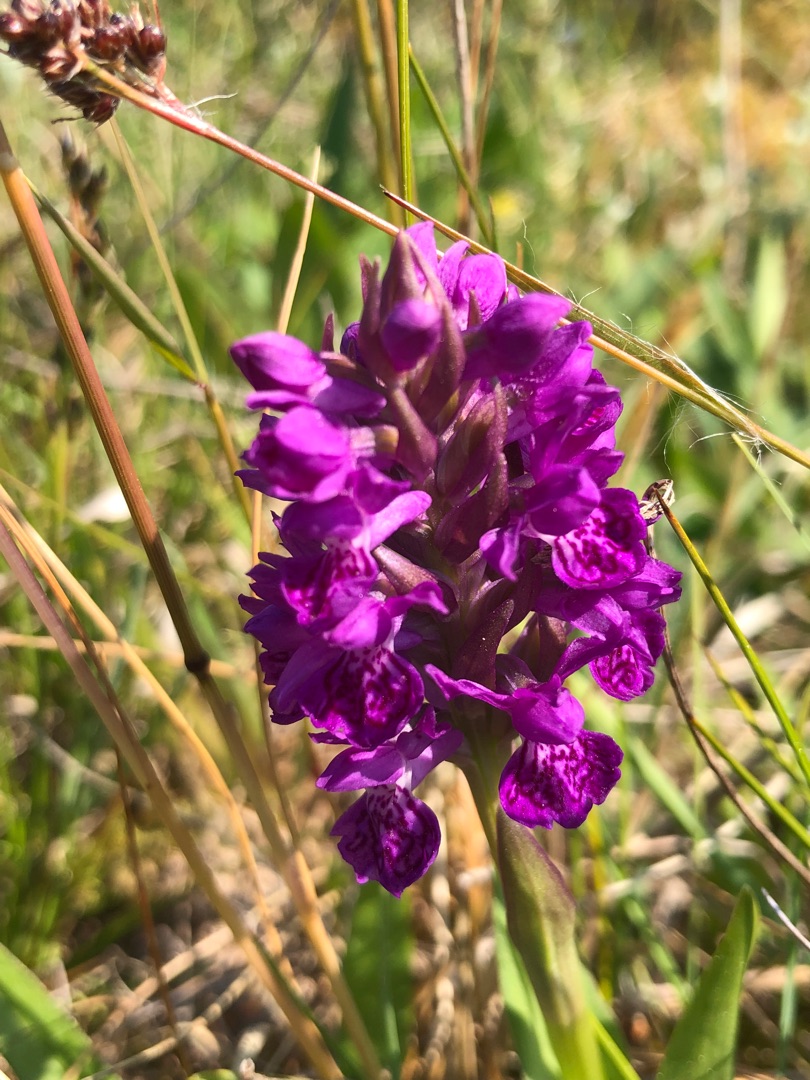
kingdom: Plantae
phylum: Tracheophyta
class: Liliopsida
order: Asparagales
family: Orchidaceae
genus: Dactylorhiza
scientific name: Dactylorhiza majalis
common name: Purpur-gøgeurt
